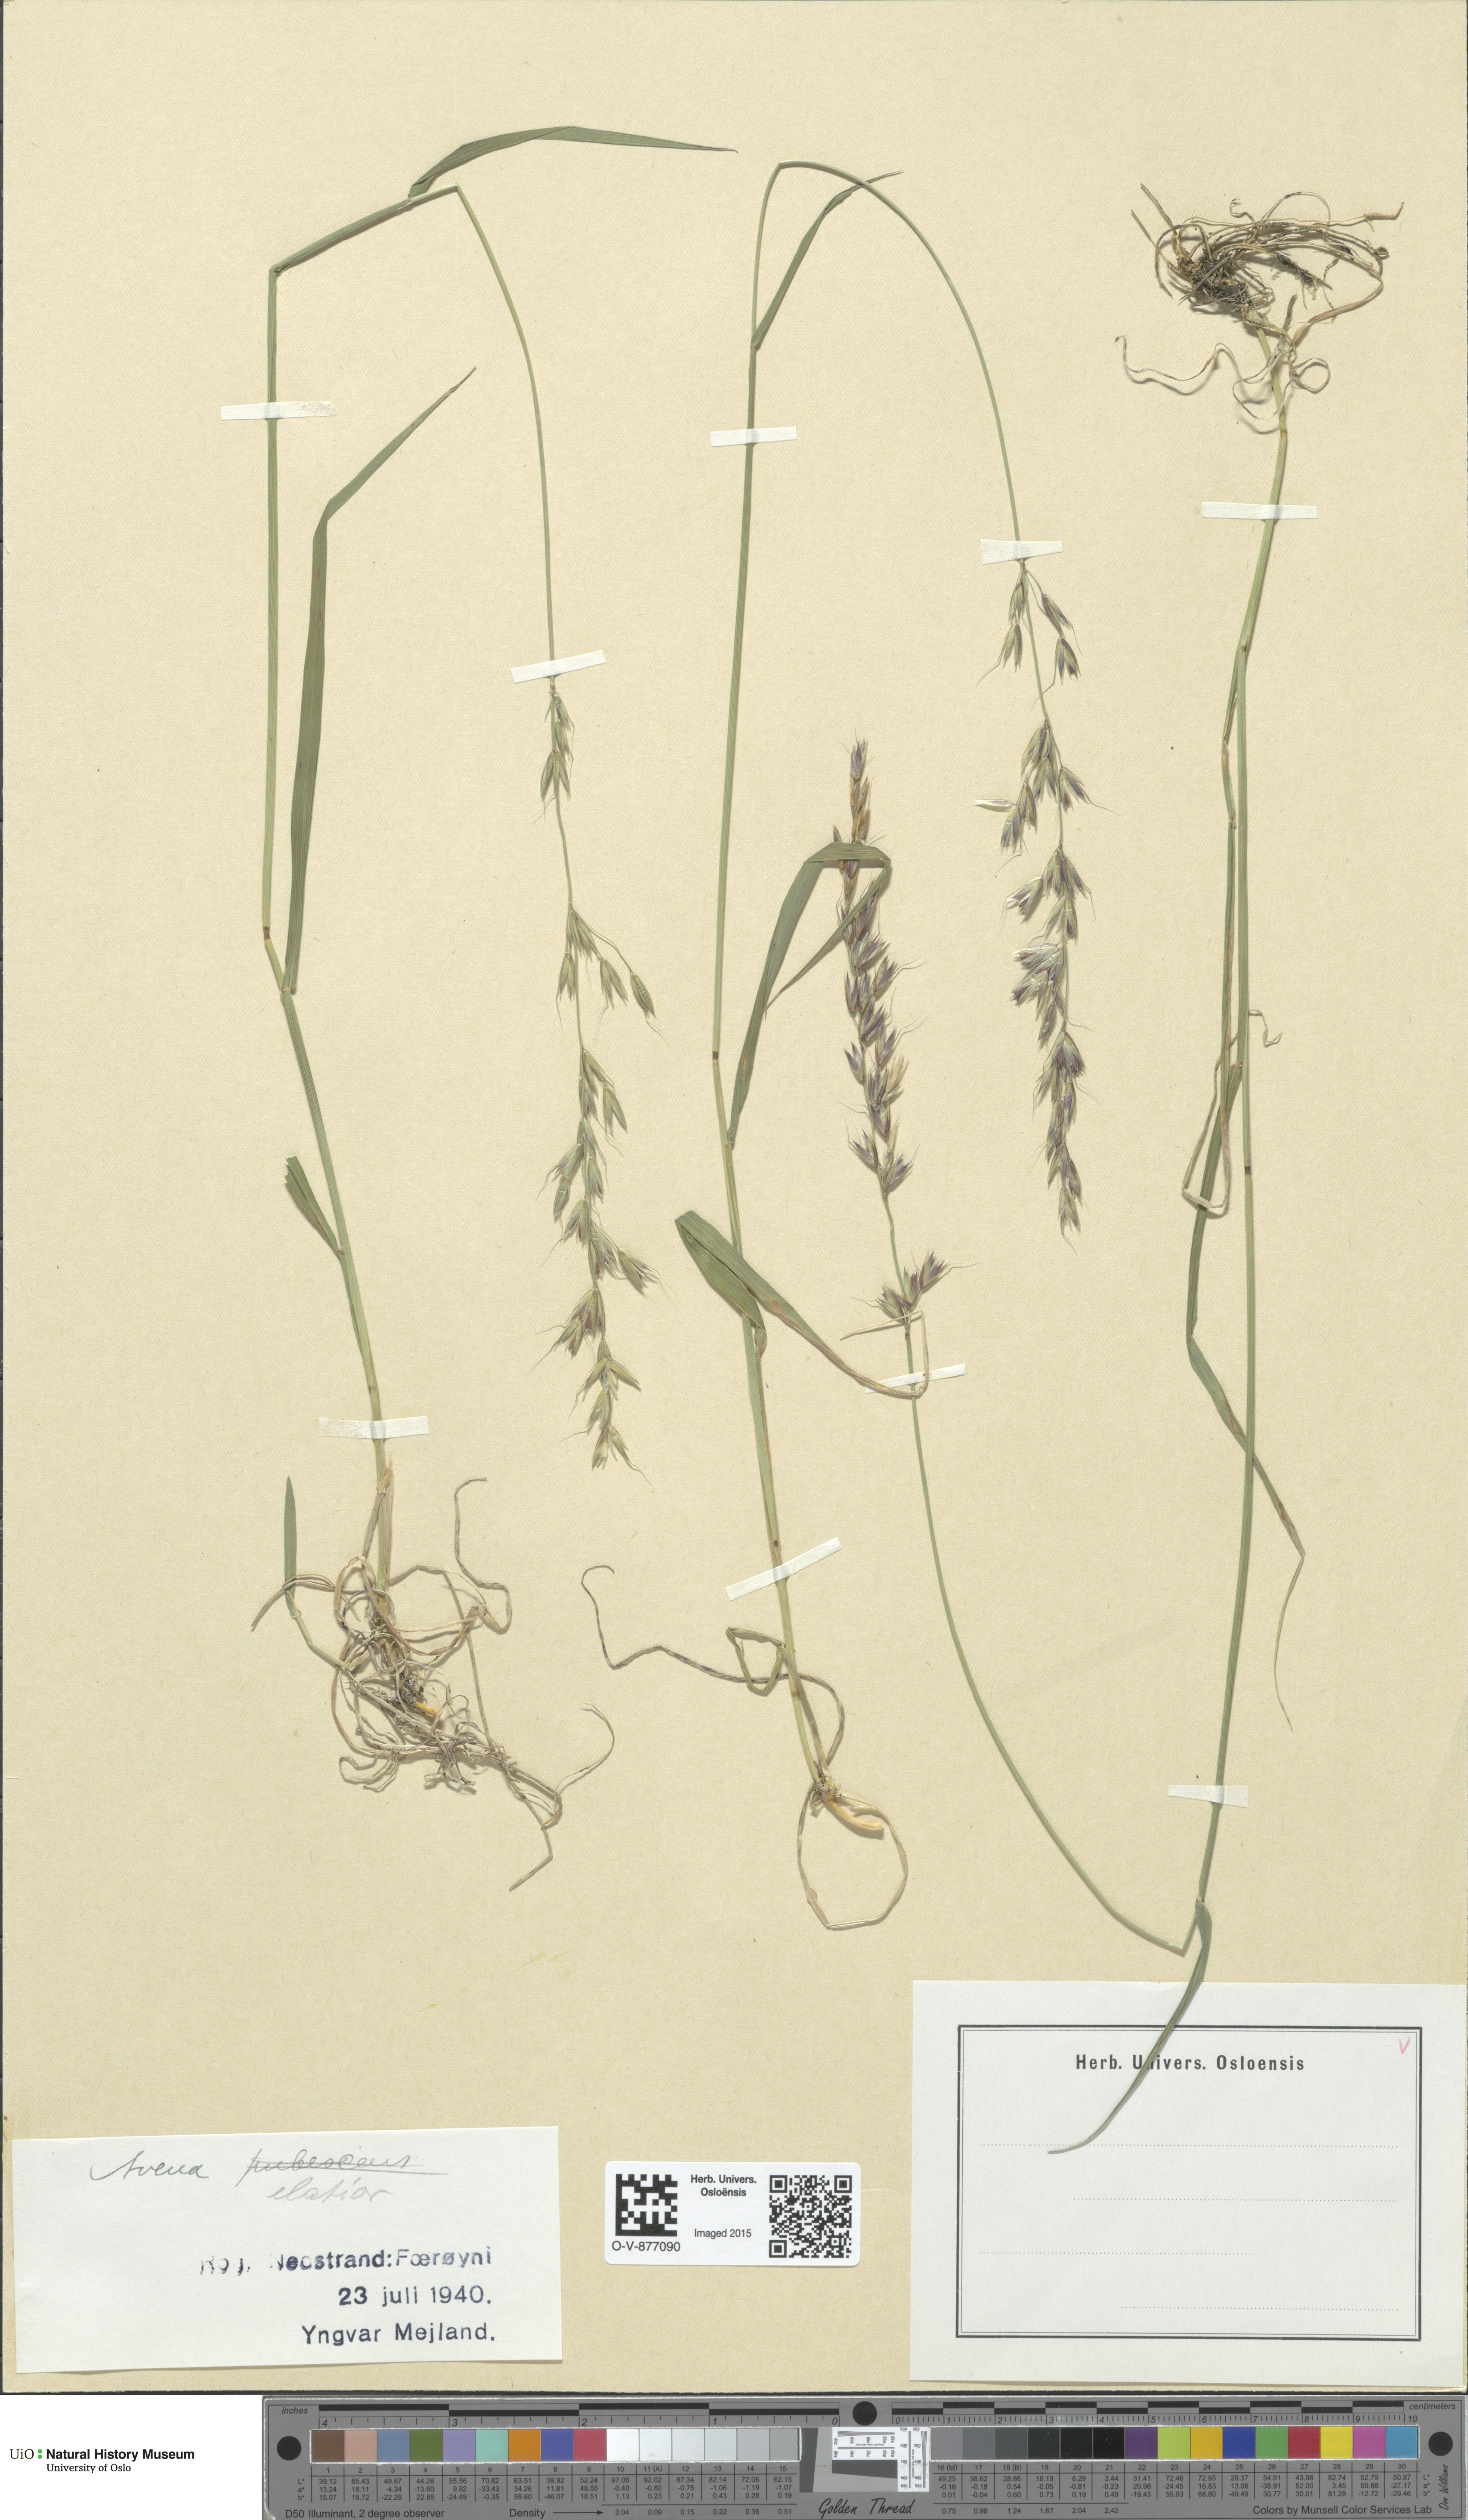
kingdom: Plantae
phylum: Tracheophyta
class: Liliopsida
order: Poales
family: Poaceae
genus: Arrhenatherum
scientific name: Arrhenatherum elatius
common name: Tall oatgrass
